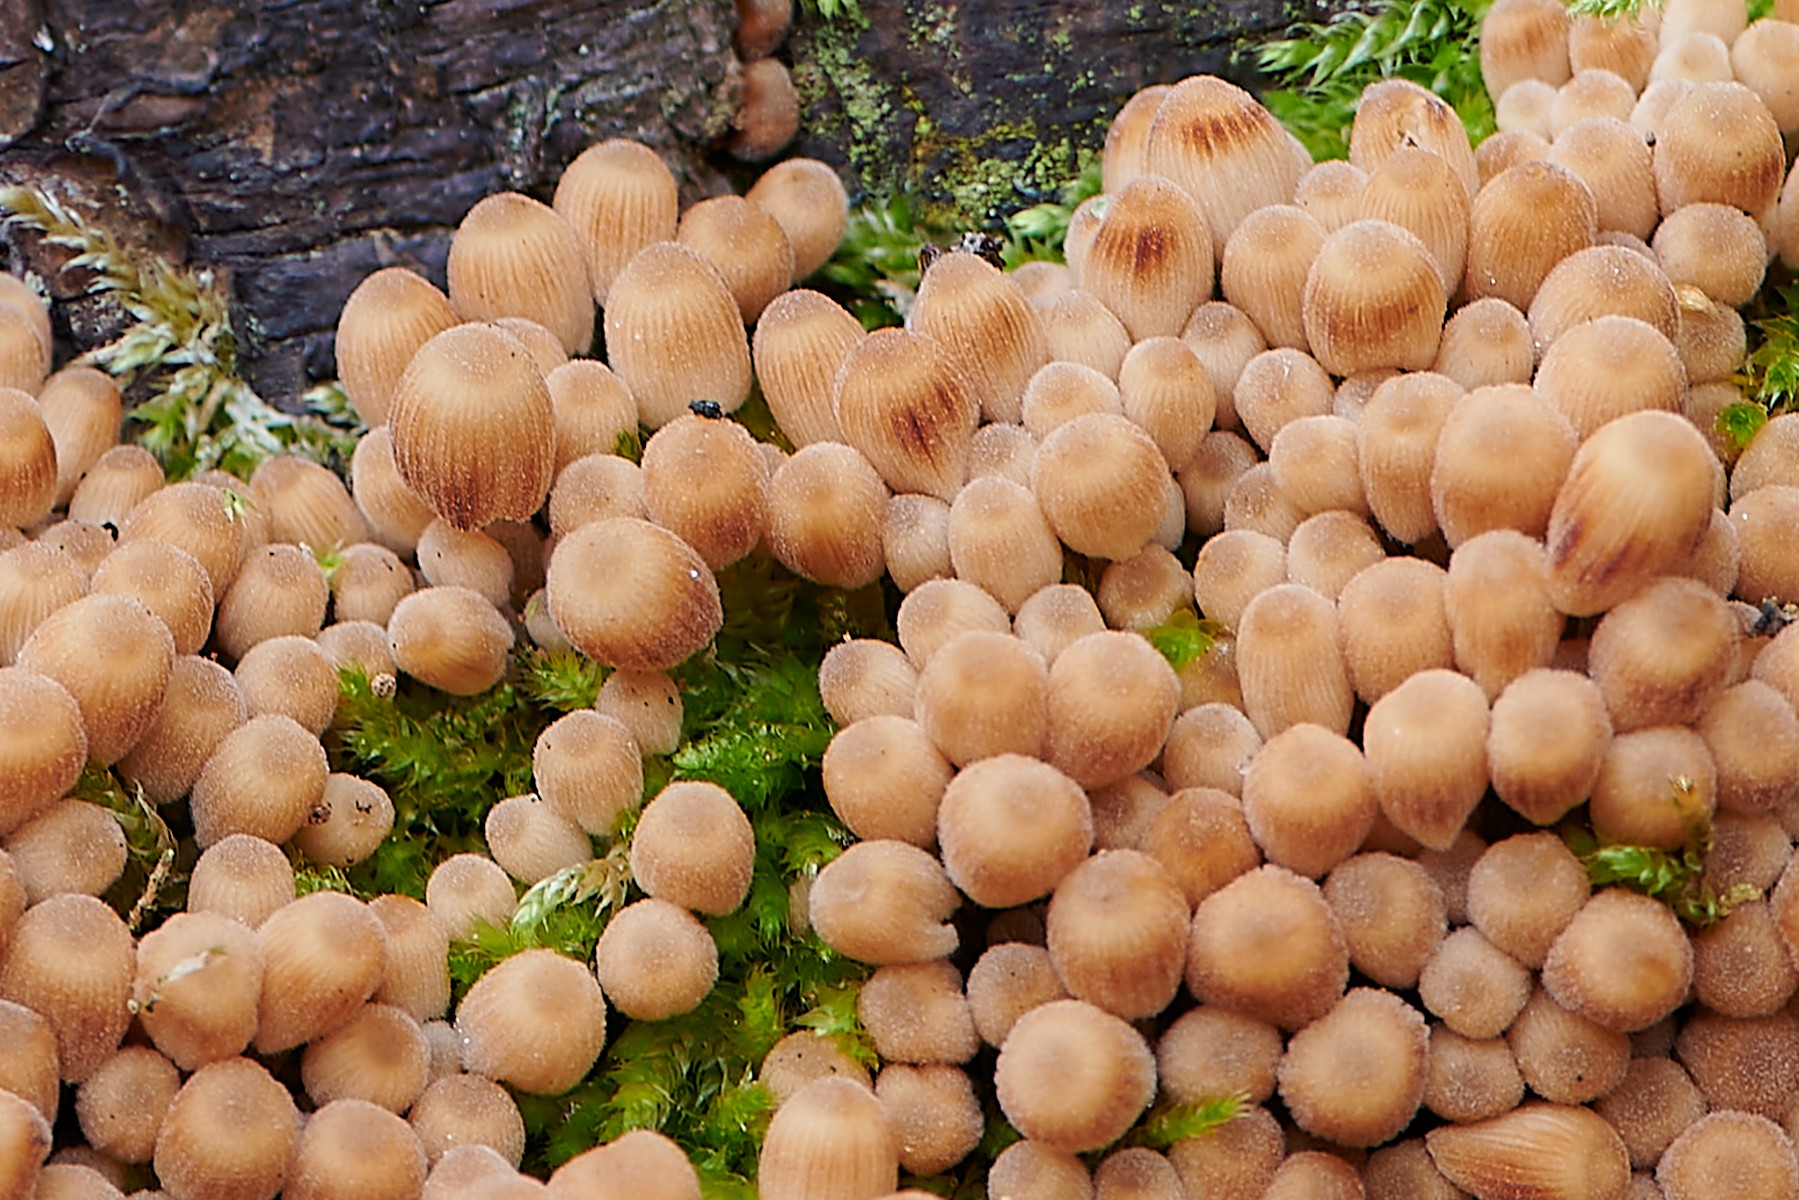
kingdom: Fungi
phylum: Basidiomycota
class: Agaricomycetes
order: Agaricales
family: Psathyrellaceae
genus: Coprinellus
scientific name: Coprinellus disseminatus
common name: bredsået blækhat
